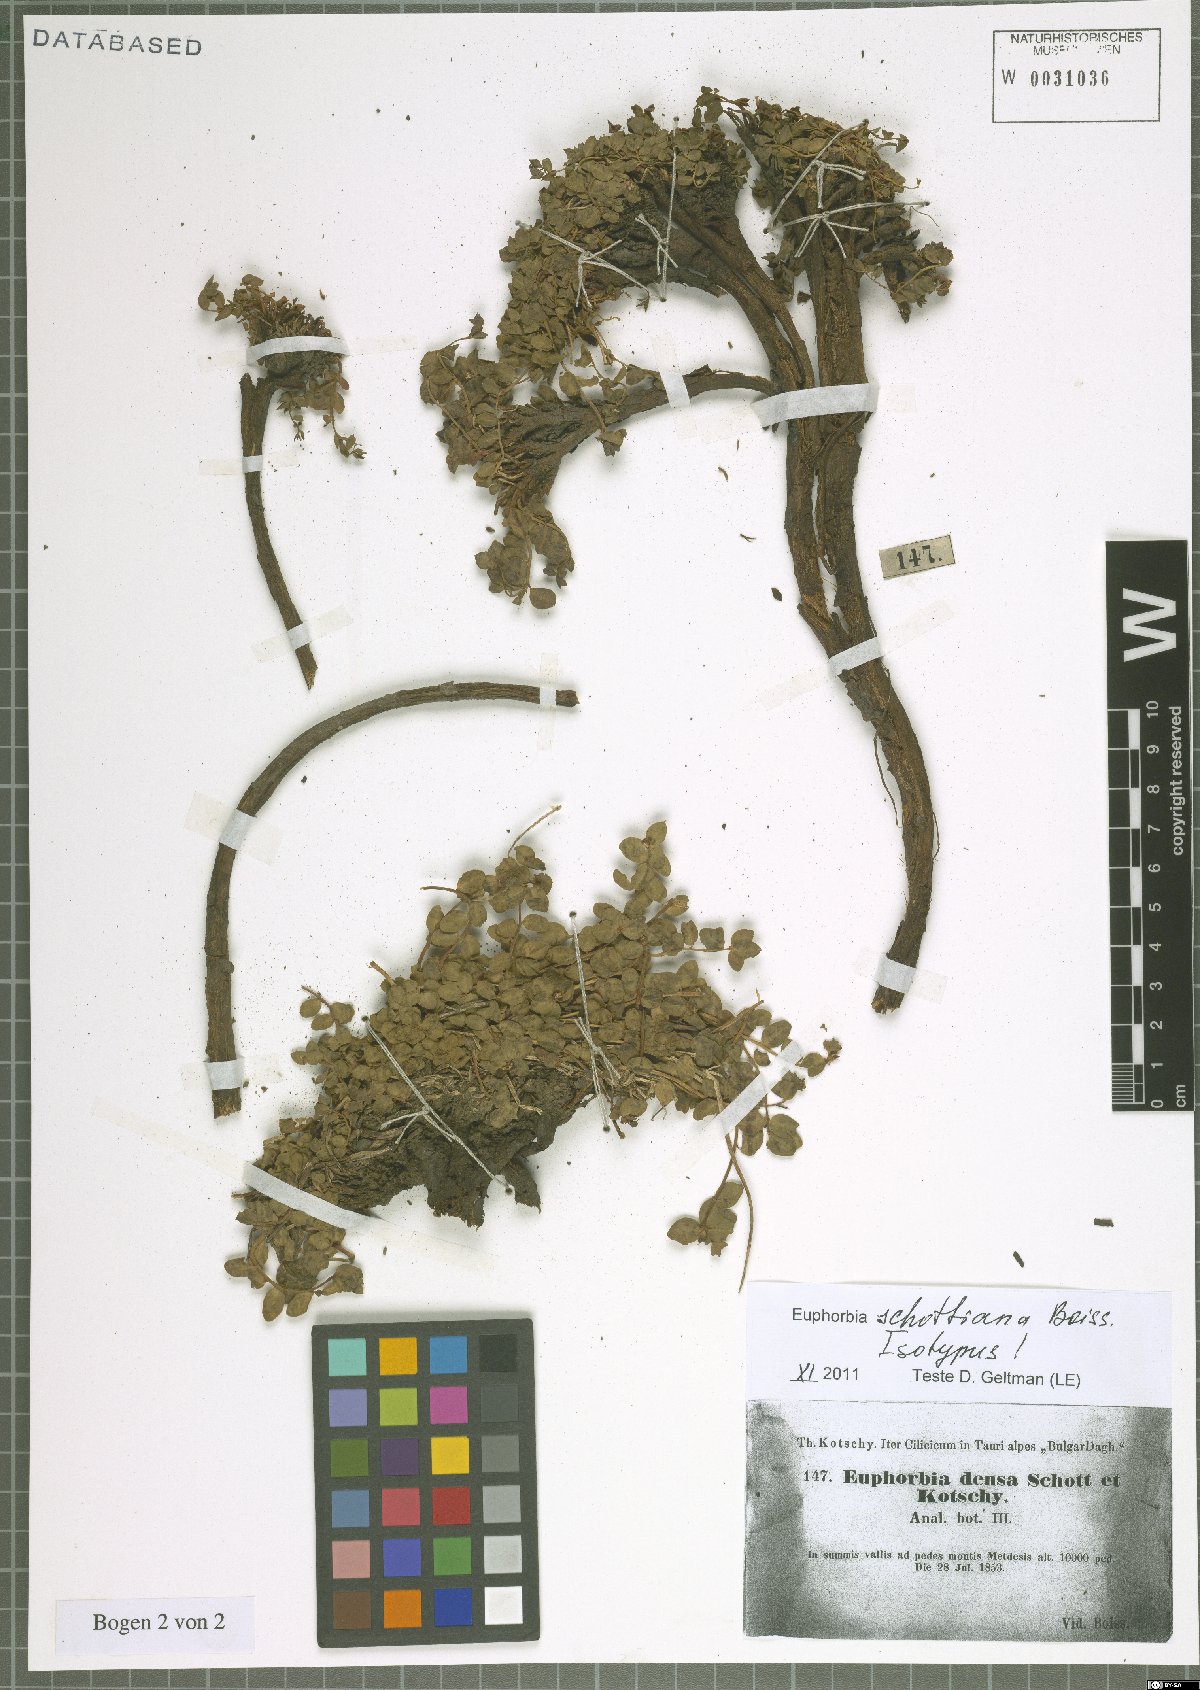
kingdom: Plantae
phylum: Tracheophyta
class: Magnoliopsida
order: Malpighiales
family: Euphorbiaceae
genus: Euphorbia
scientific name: Euphorbia schottiana
